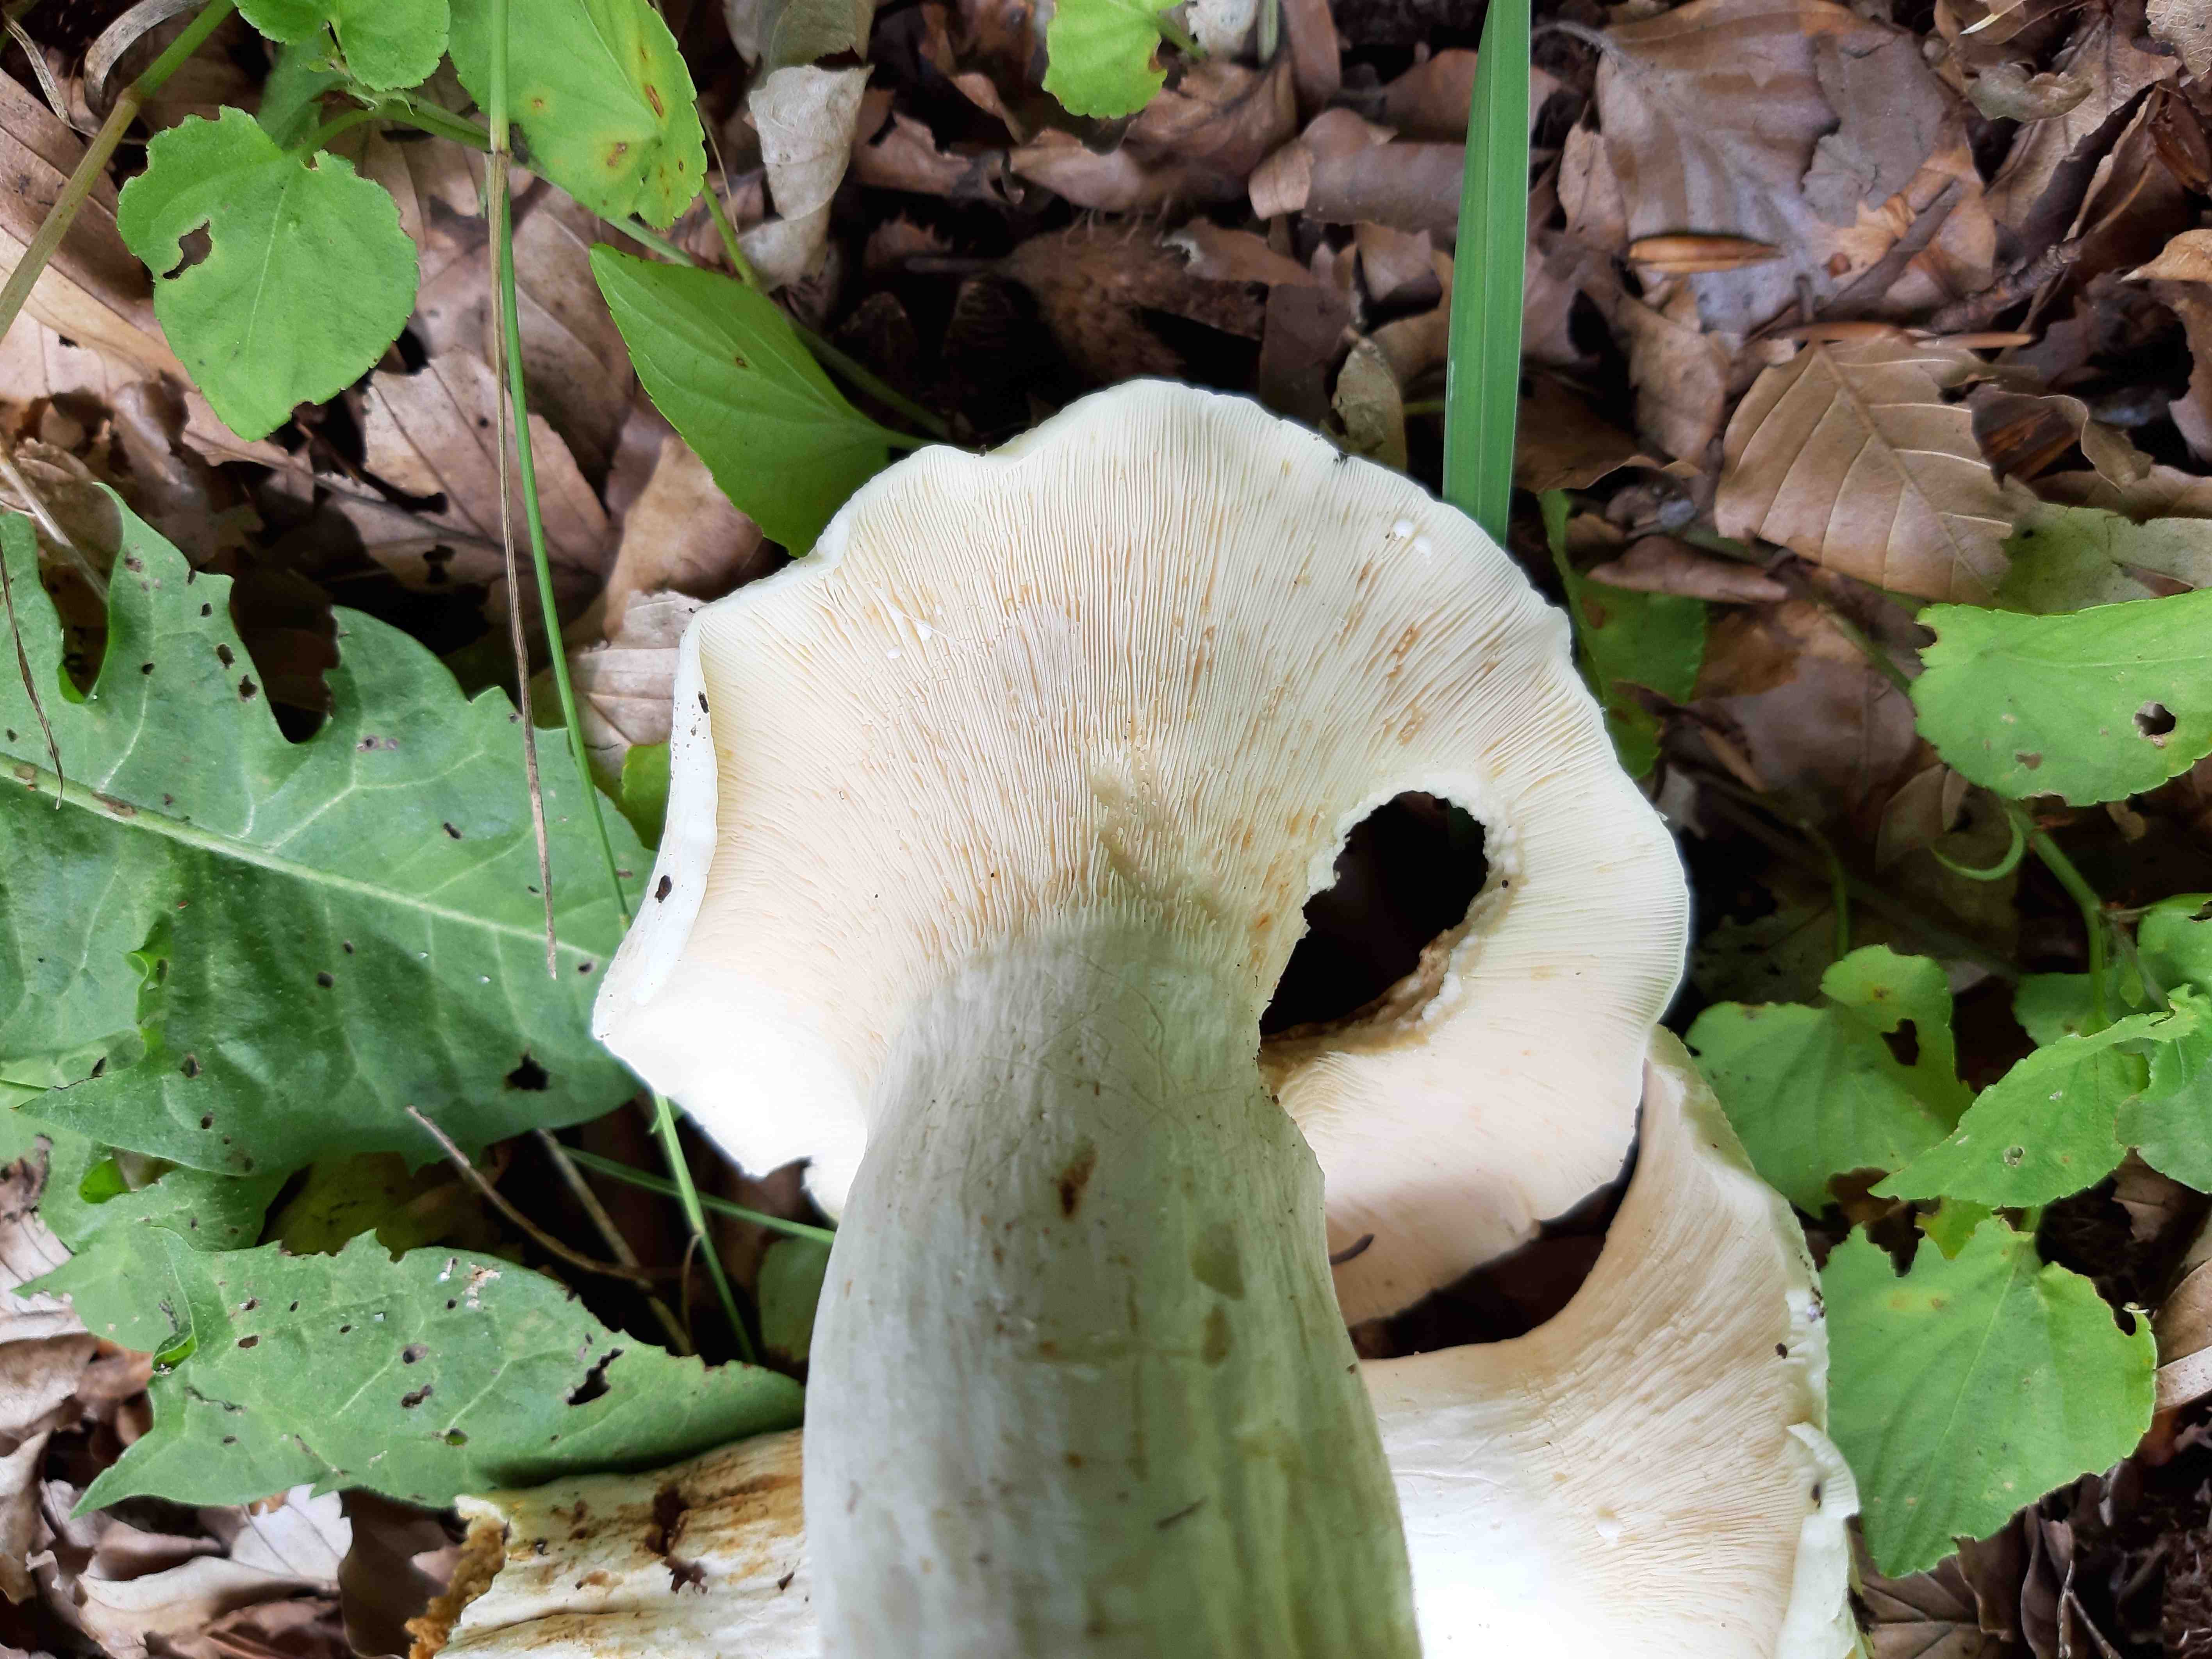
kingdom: Fungi
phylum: Basidiomycota
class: Agaricomycetes
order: Russulales
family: Russulaceae
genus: Lactifluus
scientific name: Lactifluus piperatus
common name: peber-mælkehat
